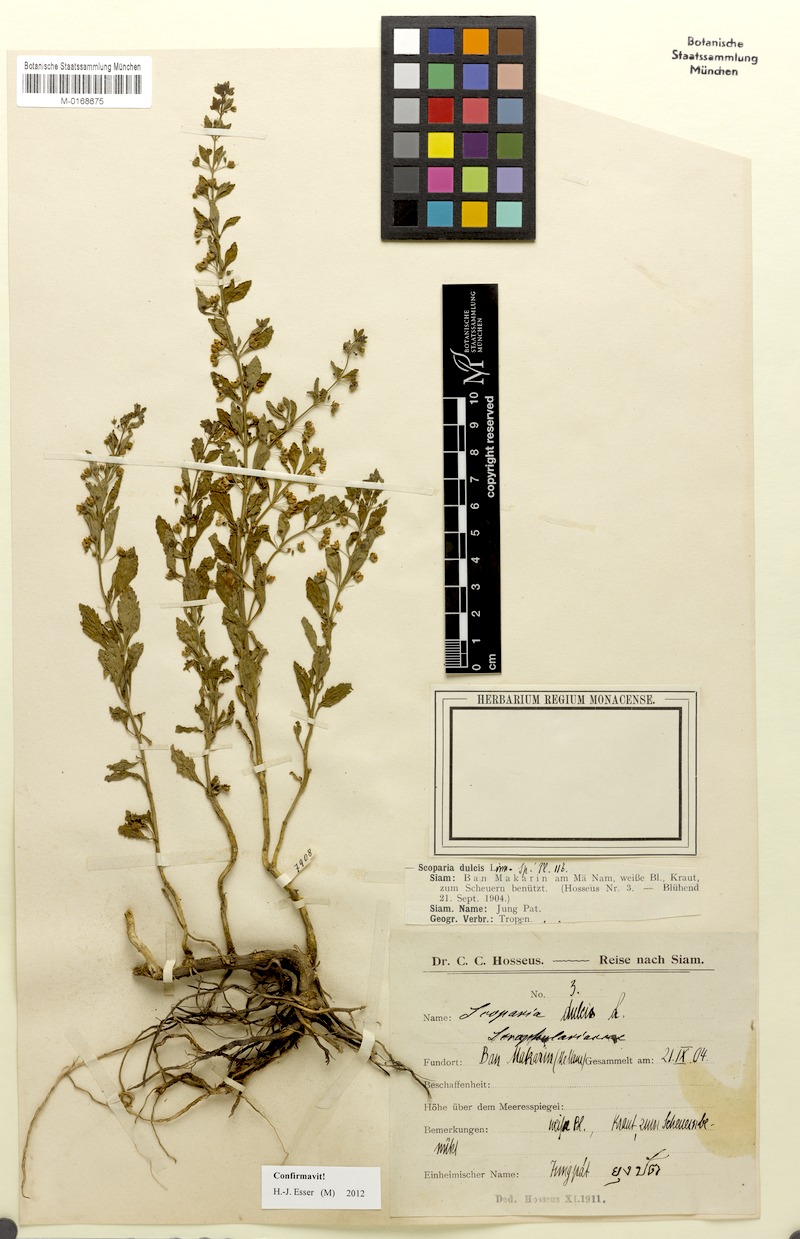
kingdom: Plantae
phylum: Tracheophyta
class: Magnoliopsida
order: Lamiales
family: Plantaginaceae
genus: Scoparia
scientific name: Scoparia dulcis
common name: Scoparia-weed
